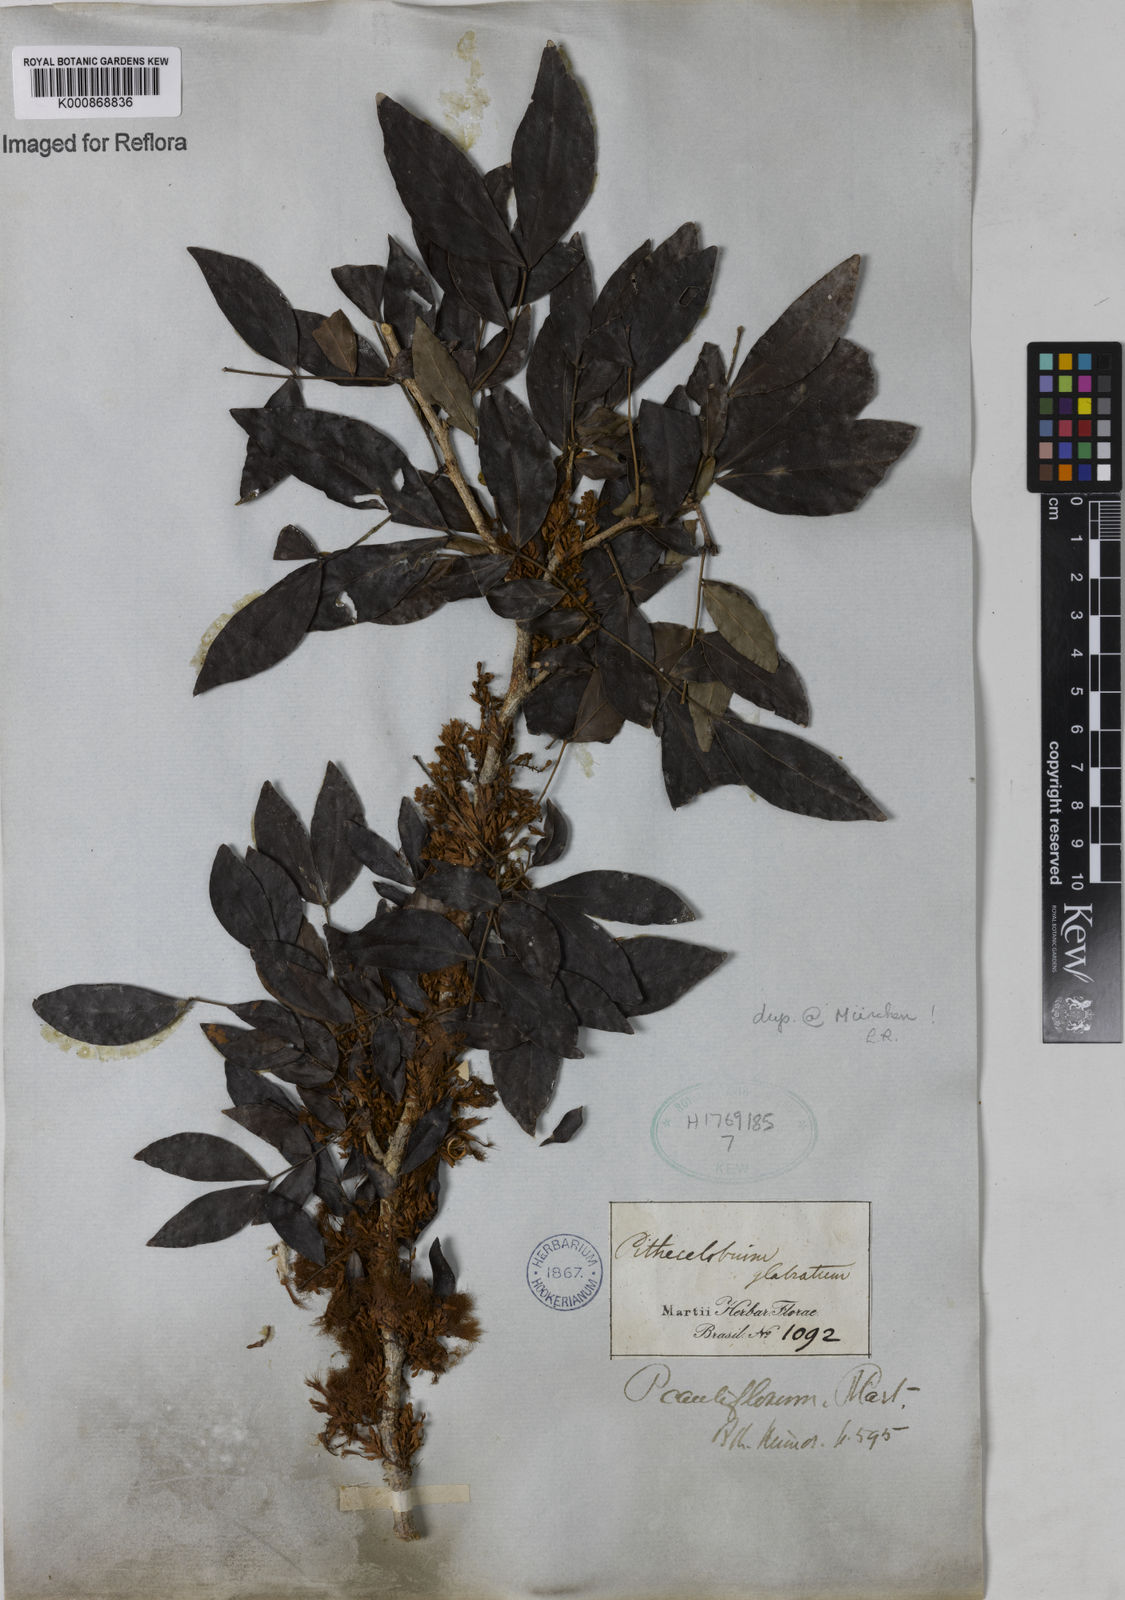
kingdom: Plantae
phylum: Tracheophyta
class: Magnoliopsida
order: Fabales
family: Fabaceae
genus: Zygia
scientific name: Zygia
